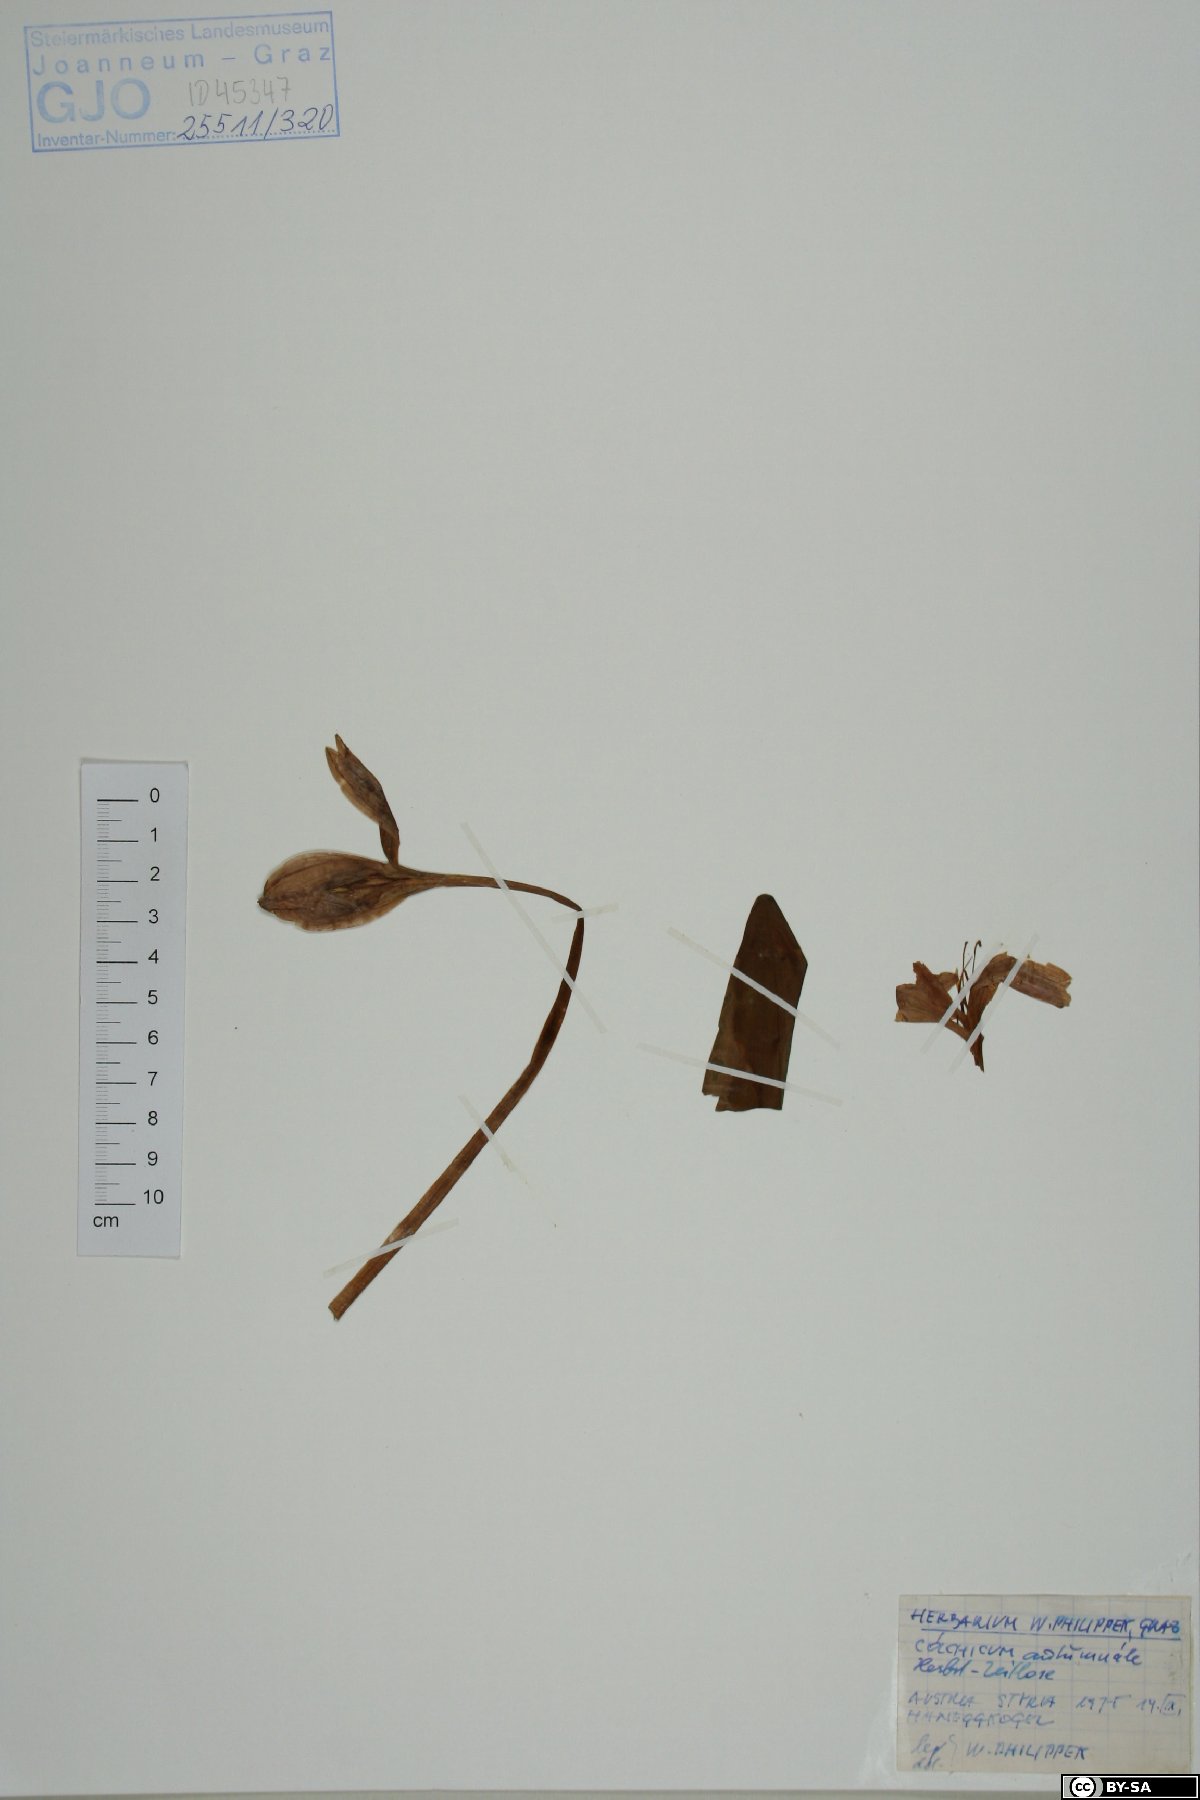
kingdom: Plantae
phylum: Tracheophyta
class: Liliopsida
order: Liliales
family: Colchicaceae
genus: Colchicum
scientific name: Colchicum autumnale
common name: Autumn crocus
